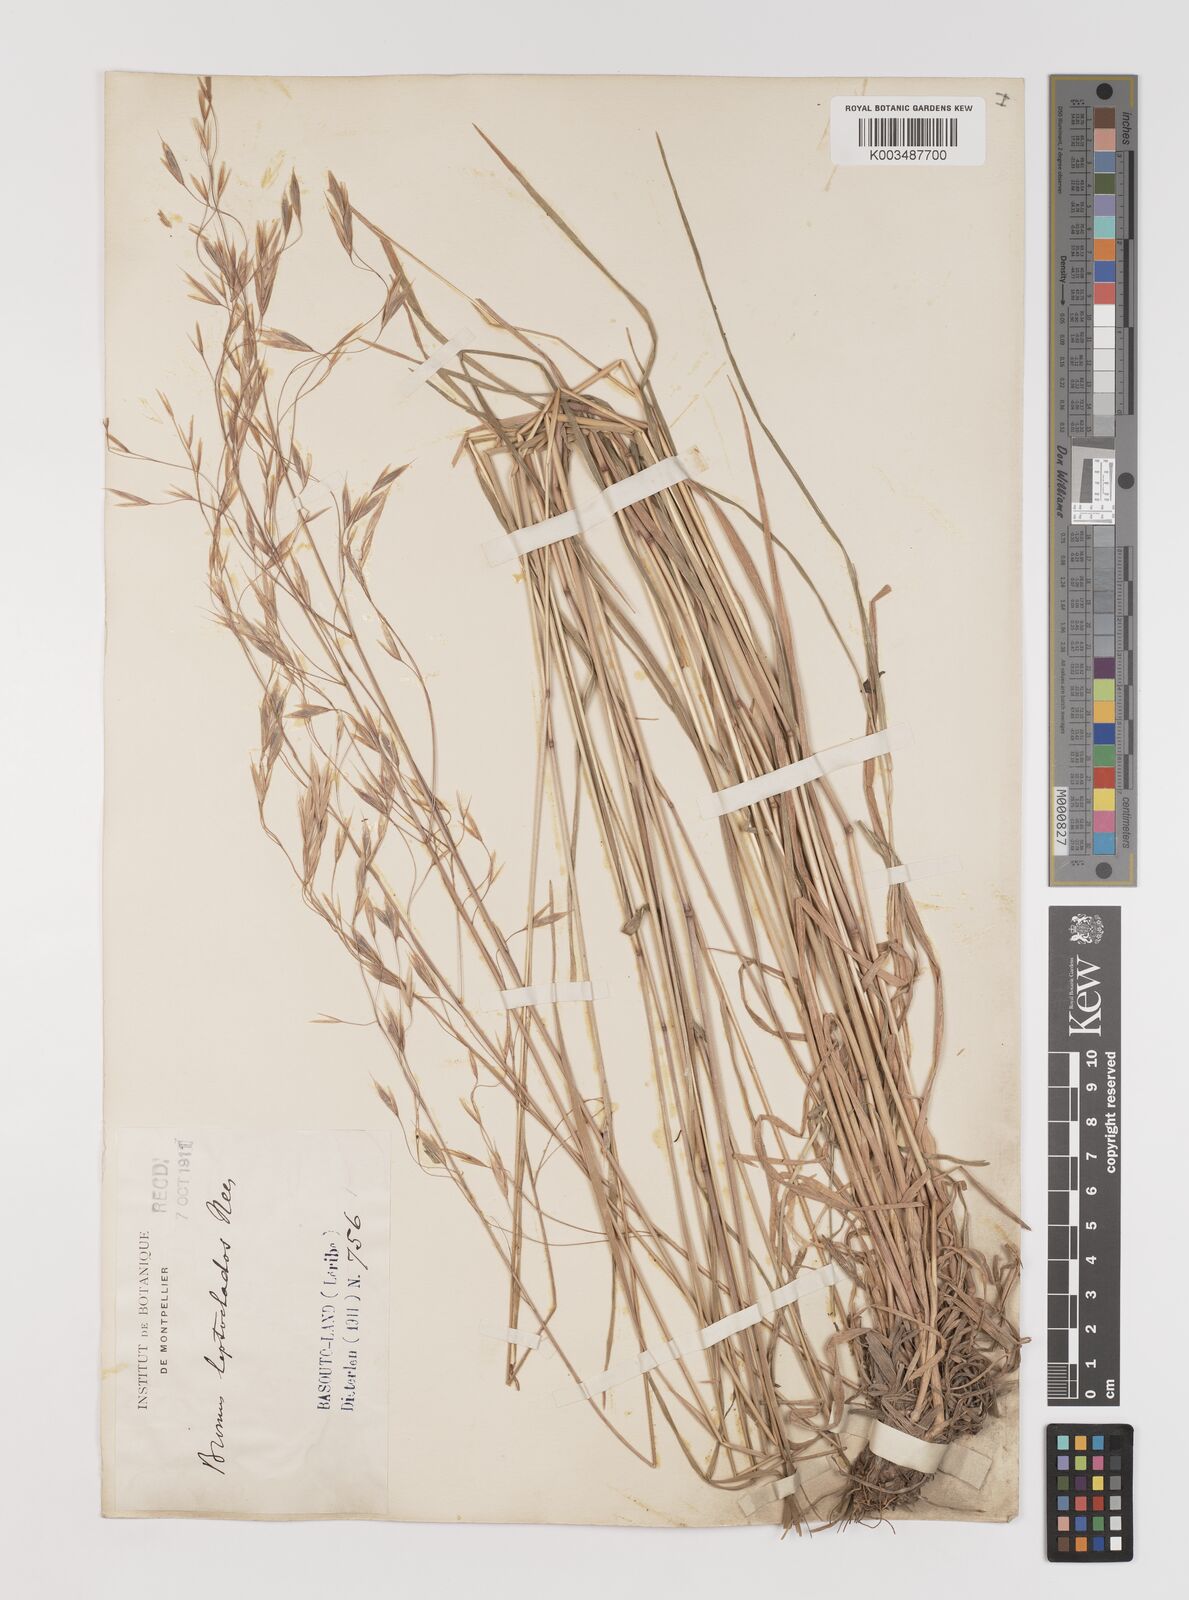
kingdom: Plantae
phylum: Tracheophyta
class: Liliopsida
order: Poales
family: Poaceae
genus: Bromus
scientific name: Bromus leptoclados
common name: Mountain bromegrass
